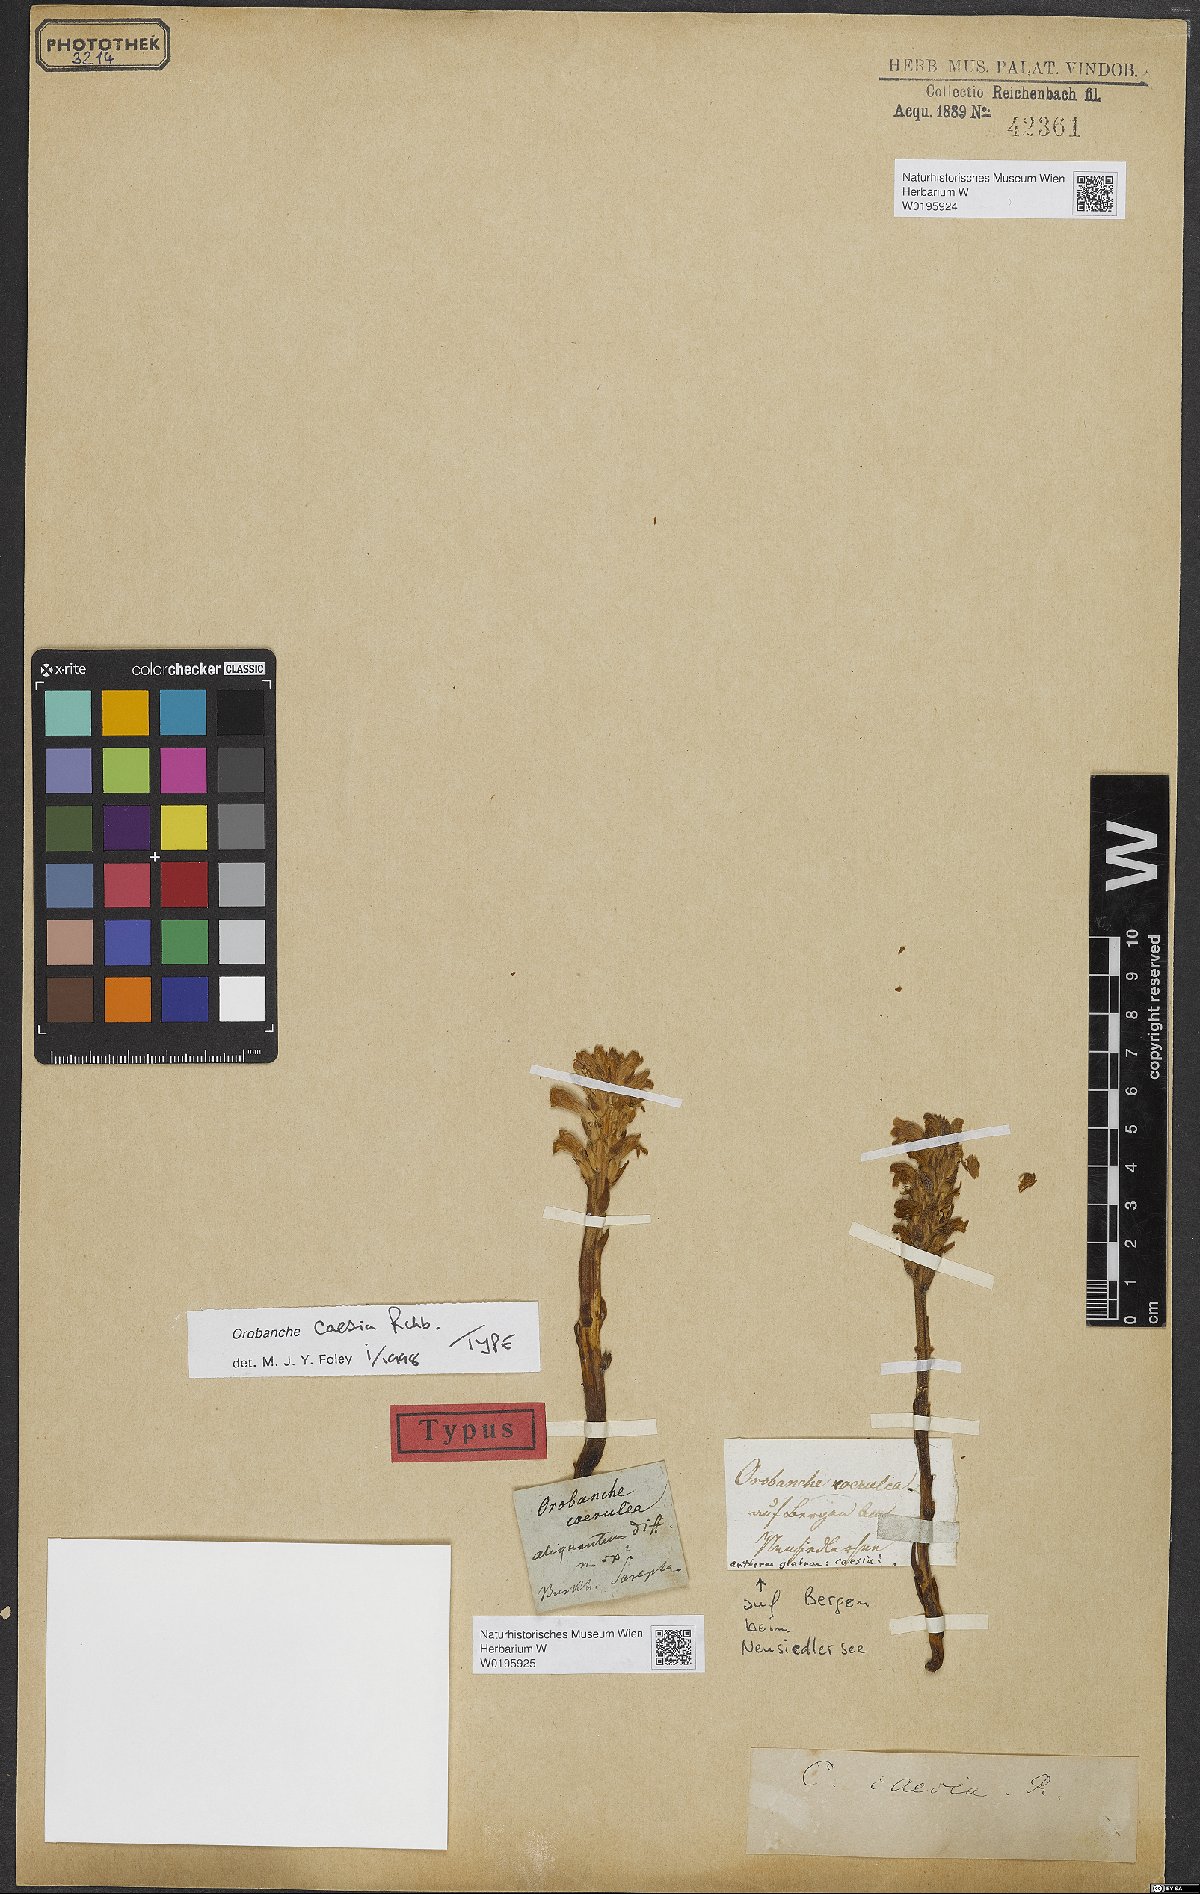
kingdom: Plantae
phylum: Tracheophyta
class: Magnoliopsida
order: Lamiales
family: Orobanchaceae
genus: Phelipanche
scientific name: Phelipanche caesia
